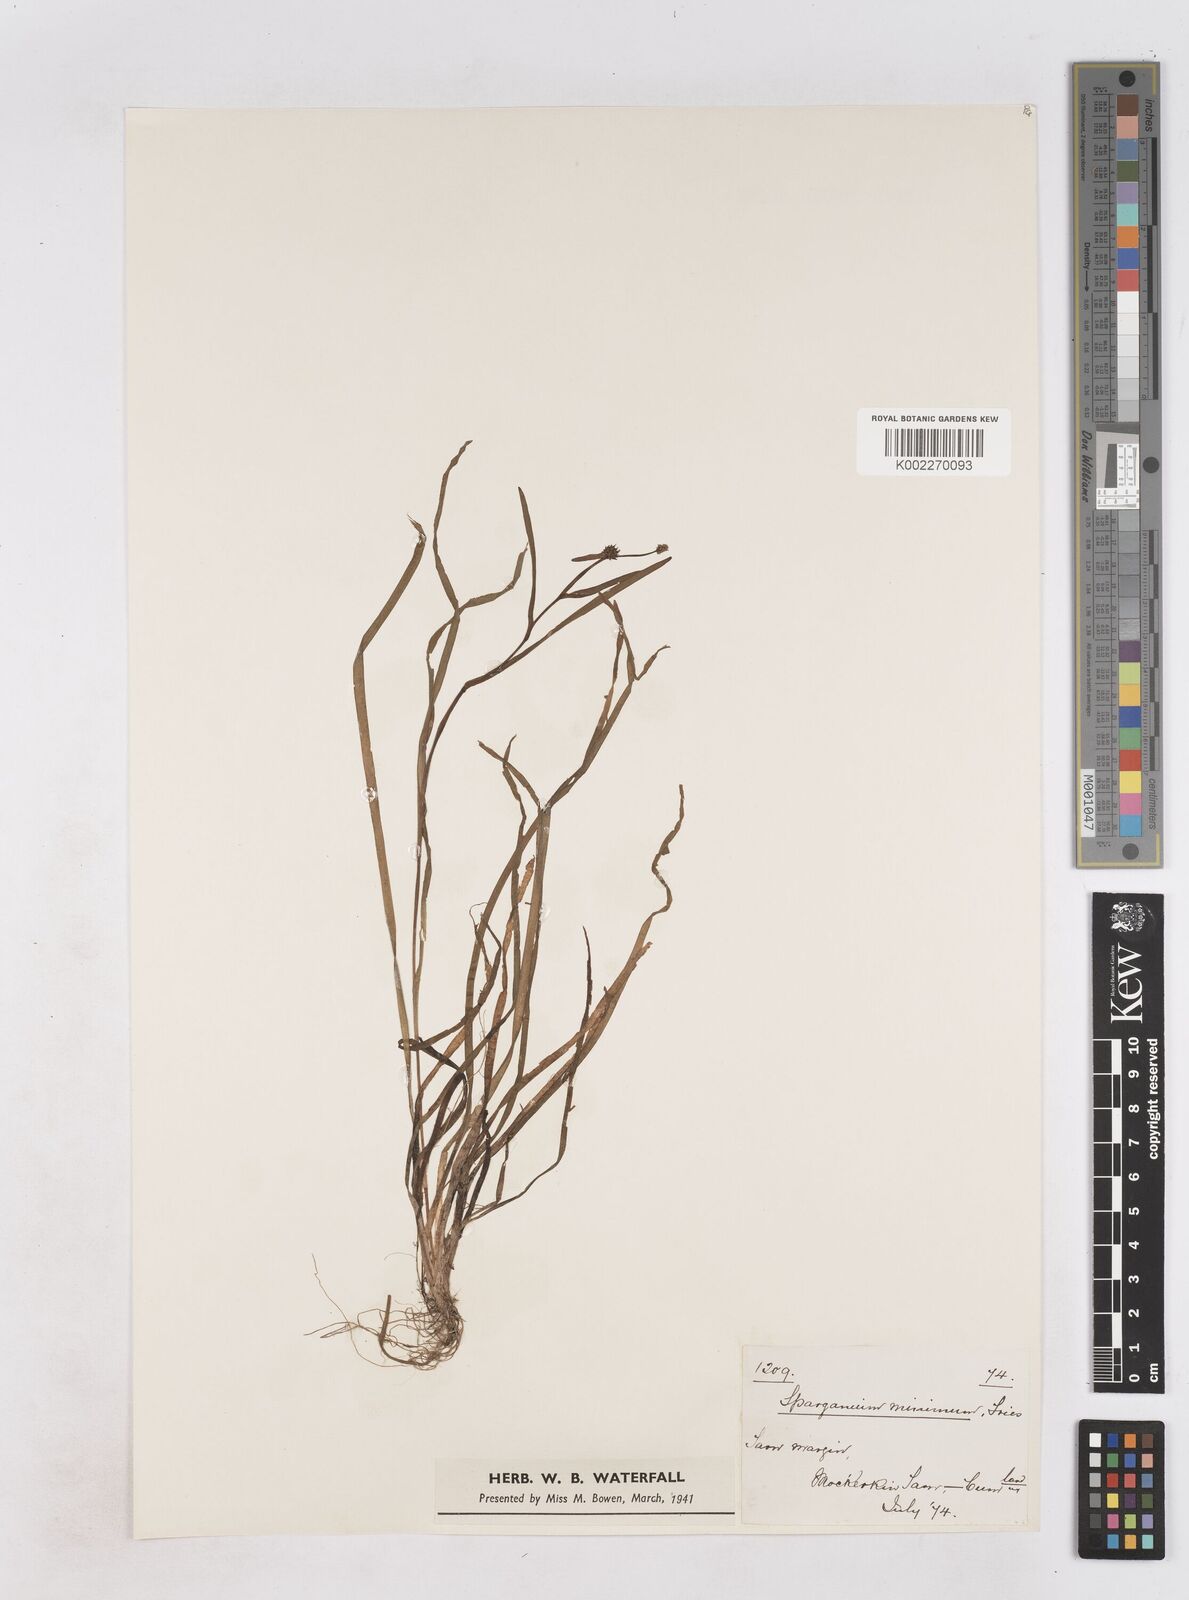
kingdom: Plantae
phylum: Tracheophyta
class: Liliopsida
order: Poales
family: Typhaceae
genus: Sparganium
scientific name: Sparganium natans
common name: Least bur-reed
